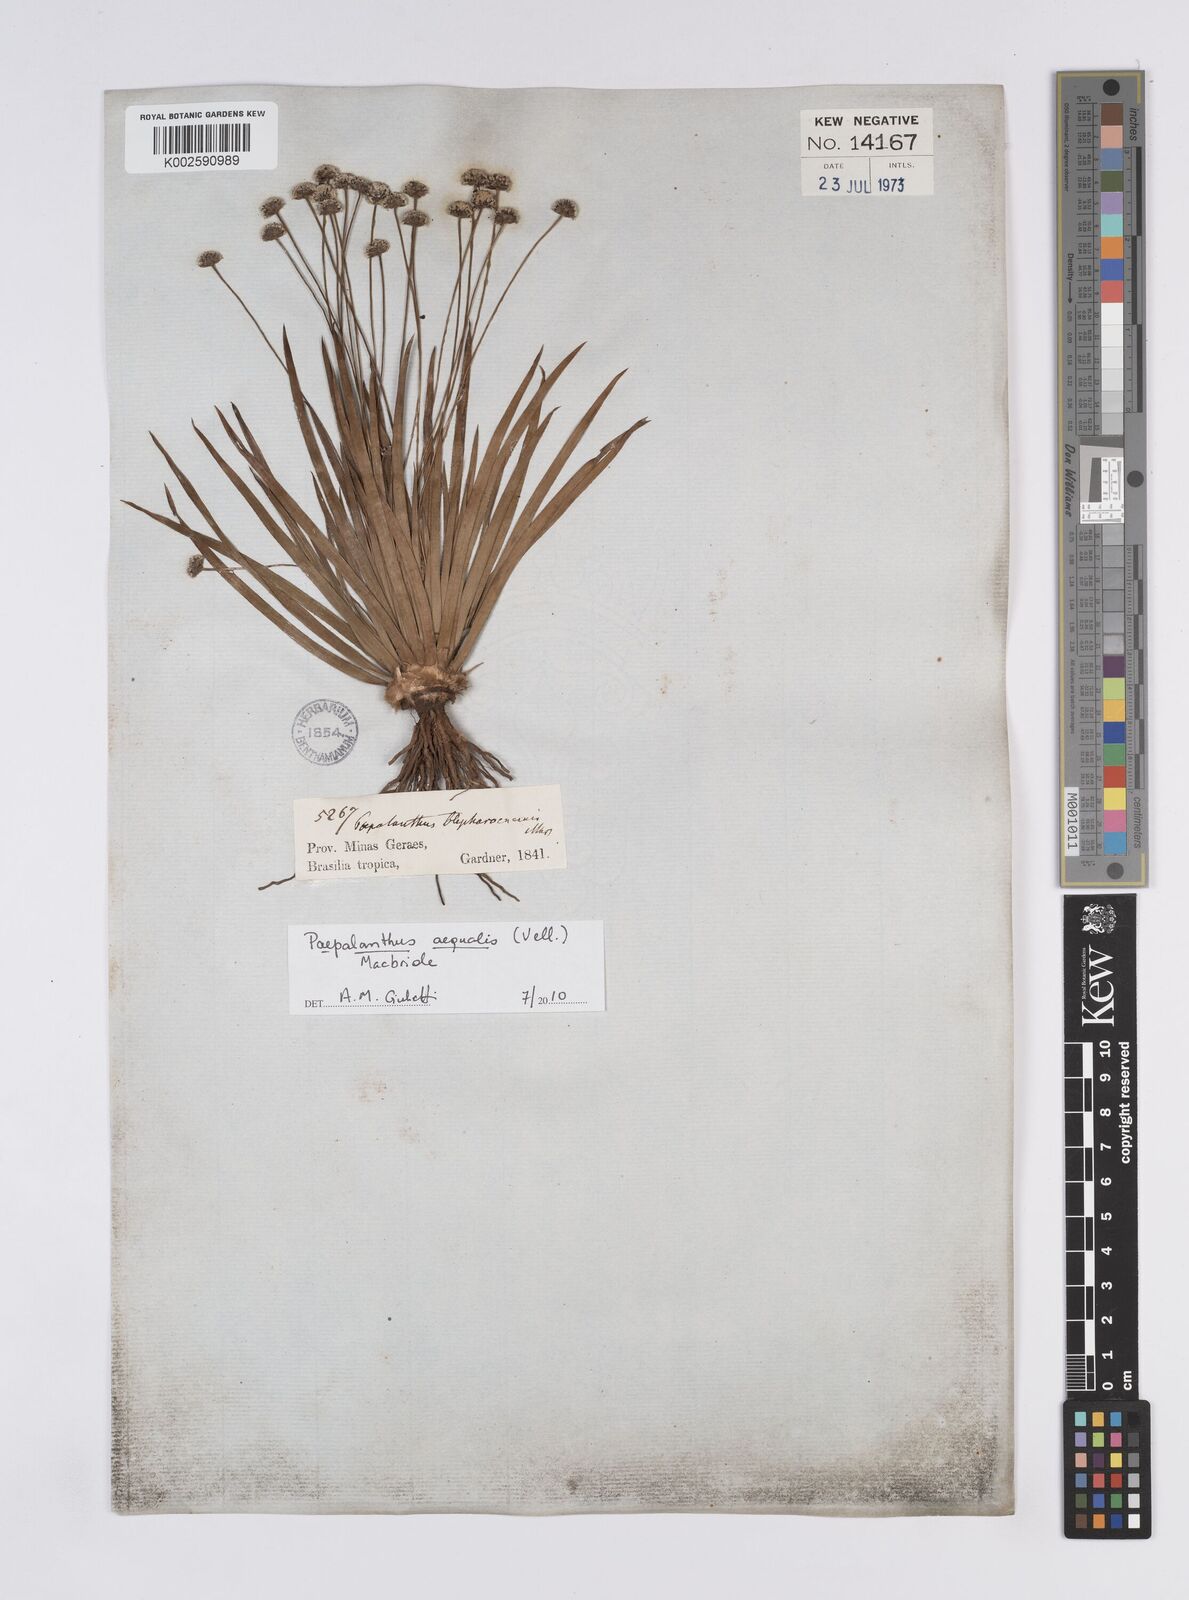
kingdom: Plantae
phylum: Tracheophyta
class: Liliopsida
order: Poales
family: Eriocaulaceae
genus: Paepalanthus
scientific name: Paepalanthus aequalis
